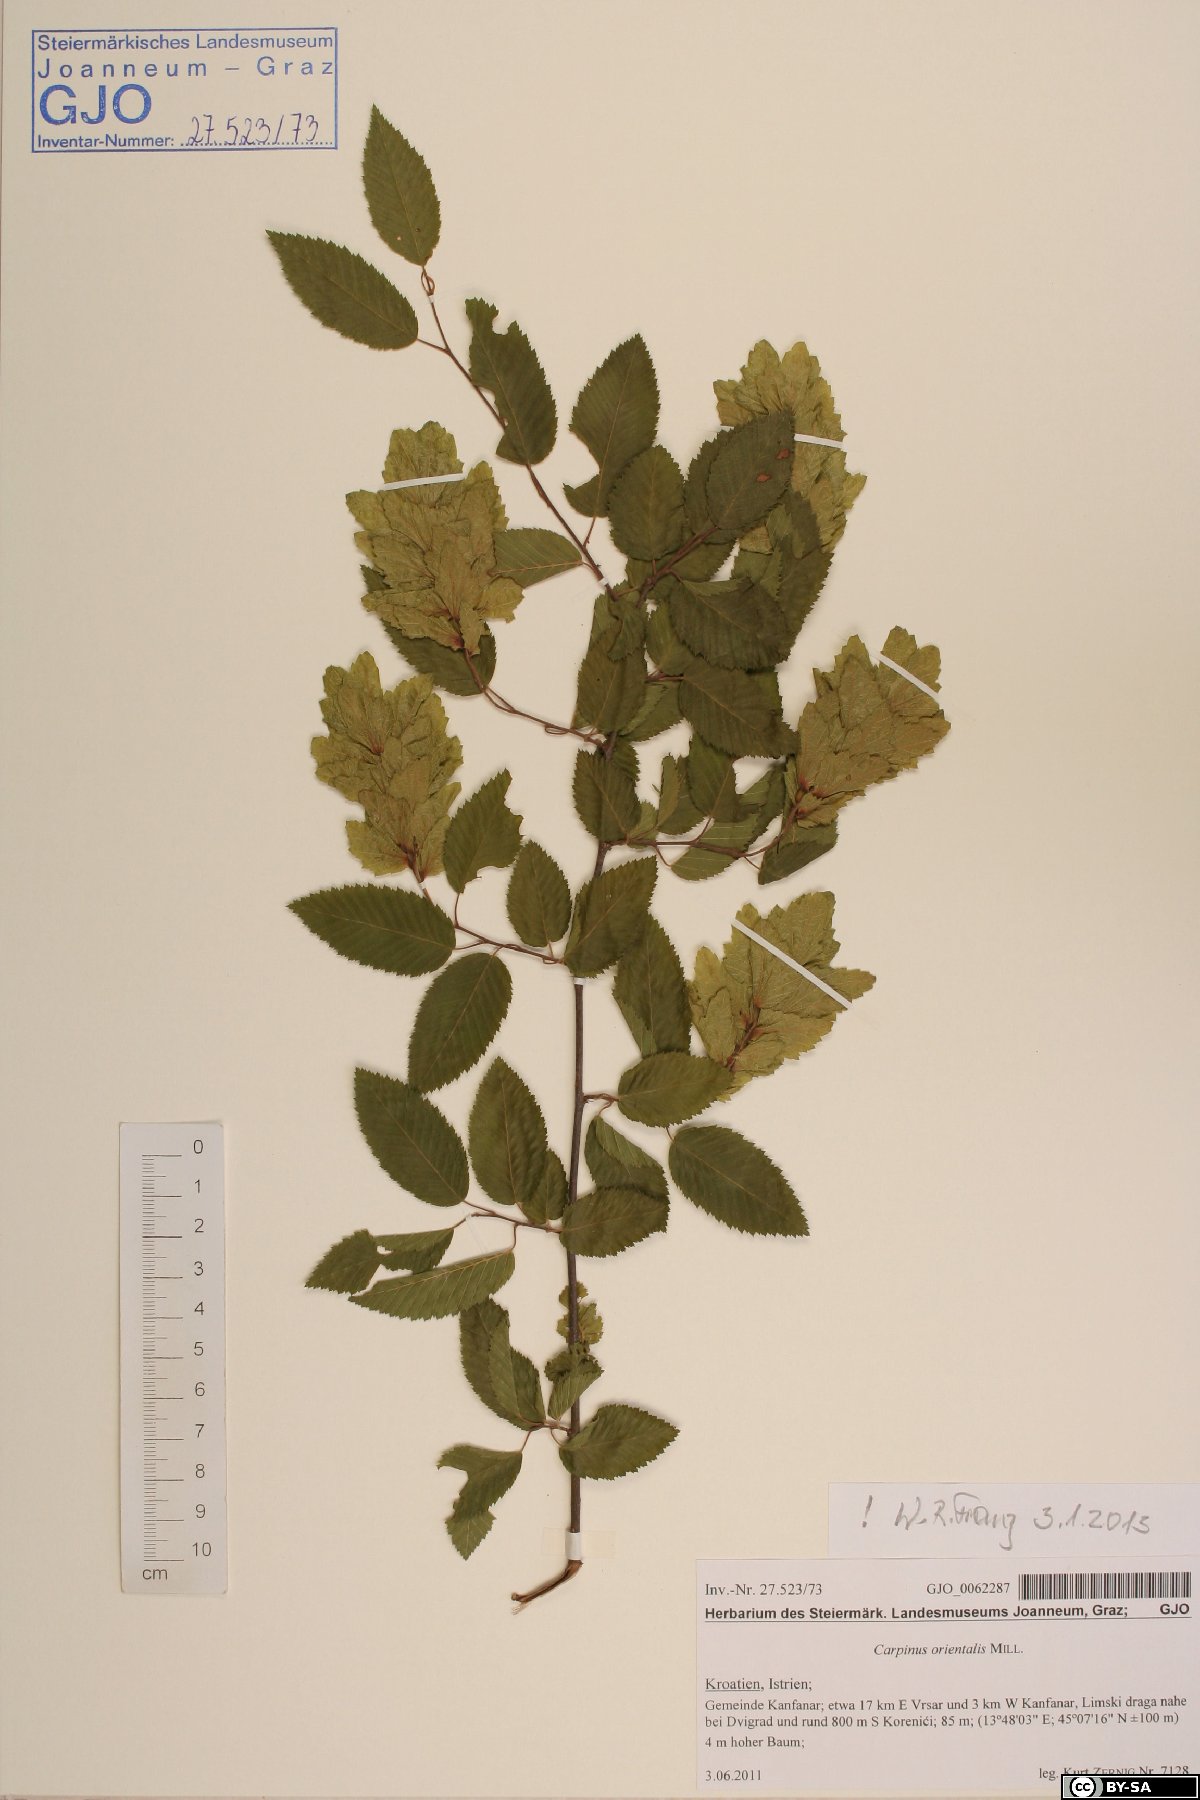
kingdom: Plantae
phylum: Tracheophyta
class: Magnoliopsida
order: Fagales
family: Betulaceae
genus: Carpinus
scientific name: Carpinus orientalis
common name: Eastern hornbeam
